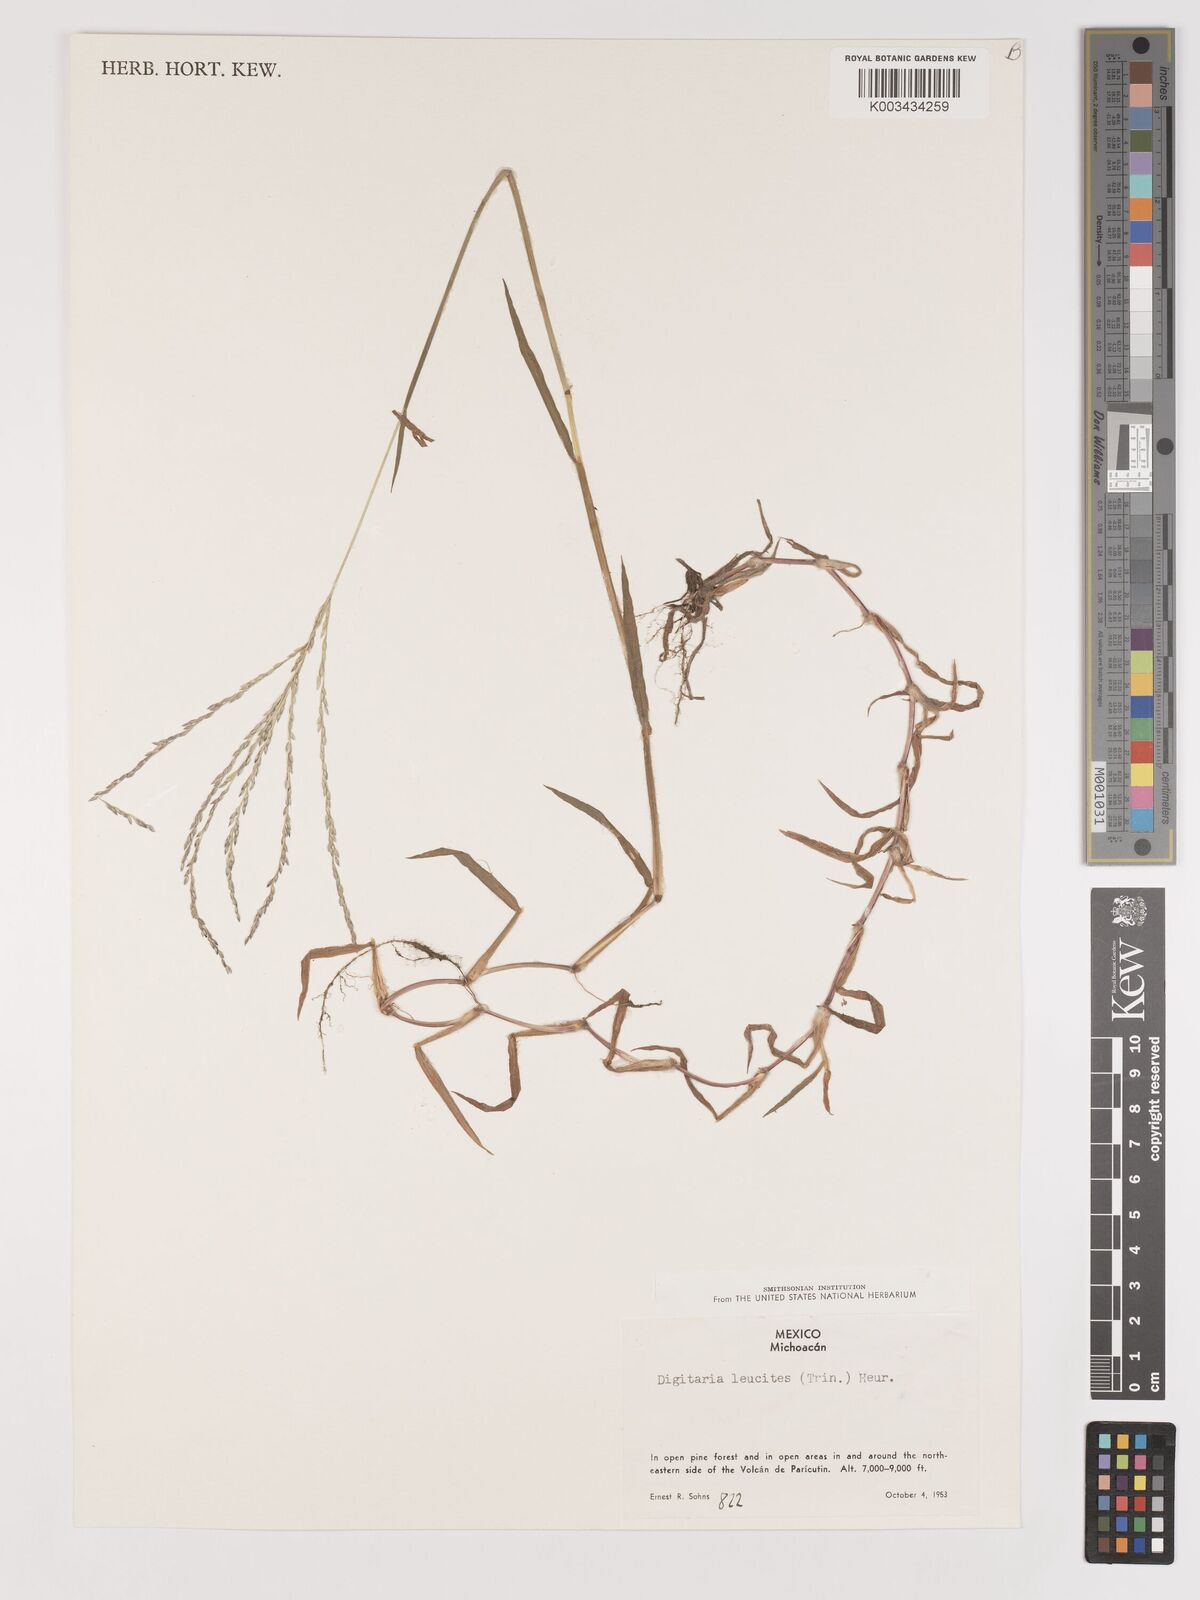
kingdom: Plantae
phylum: Tracheophyta
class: Liliopsida
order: Poales
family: Poaceae
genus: Digitaria
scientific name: Digitaria leucites
